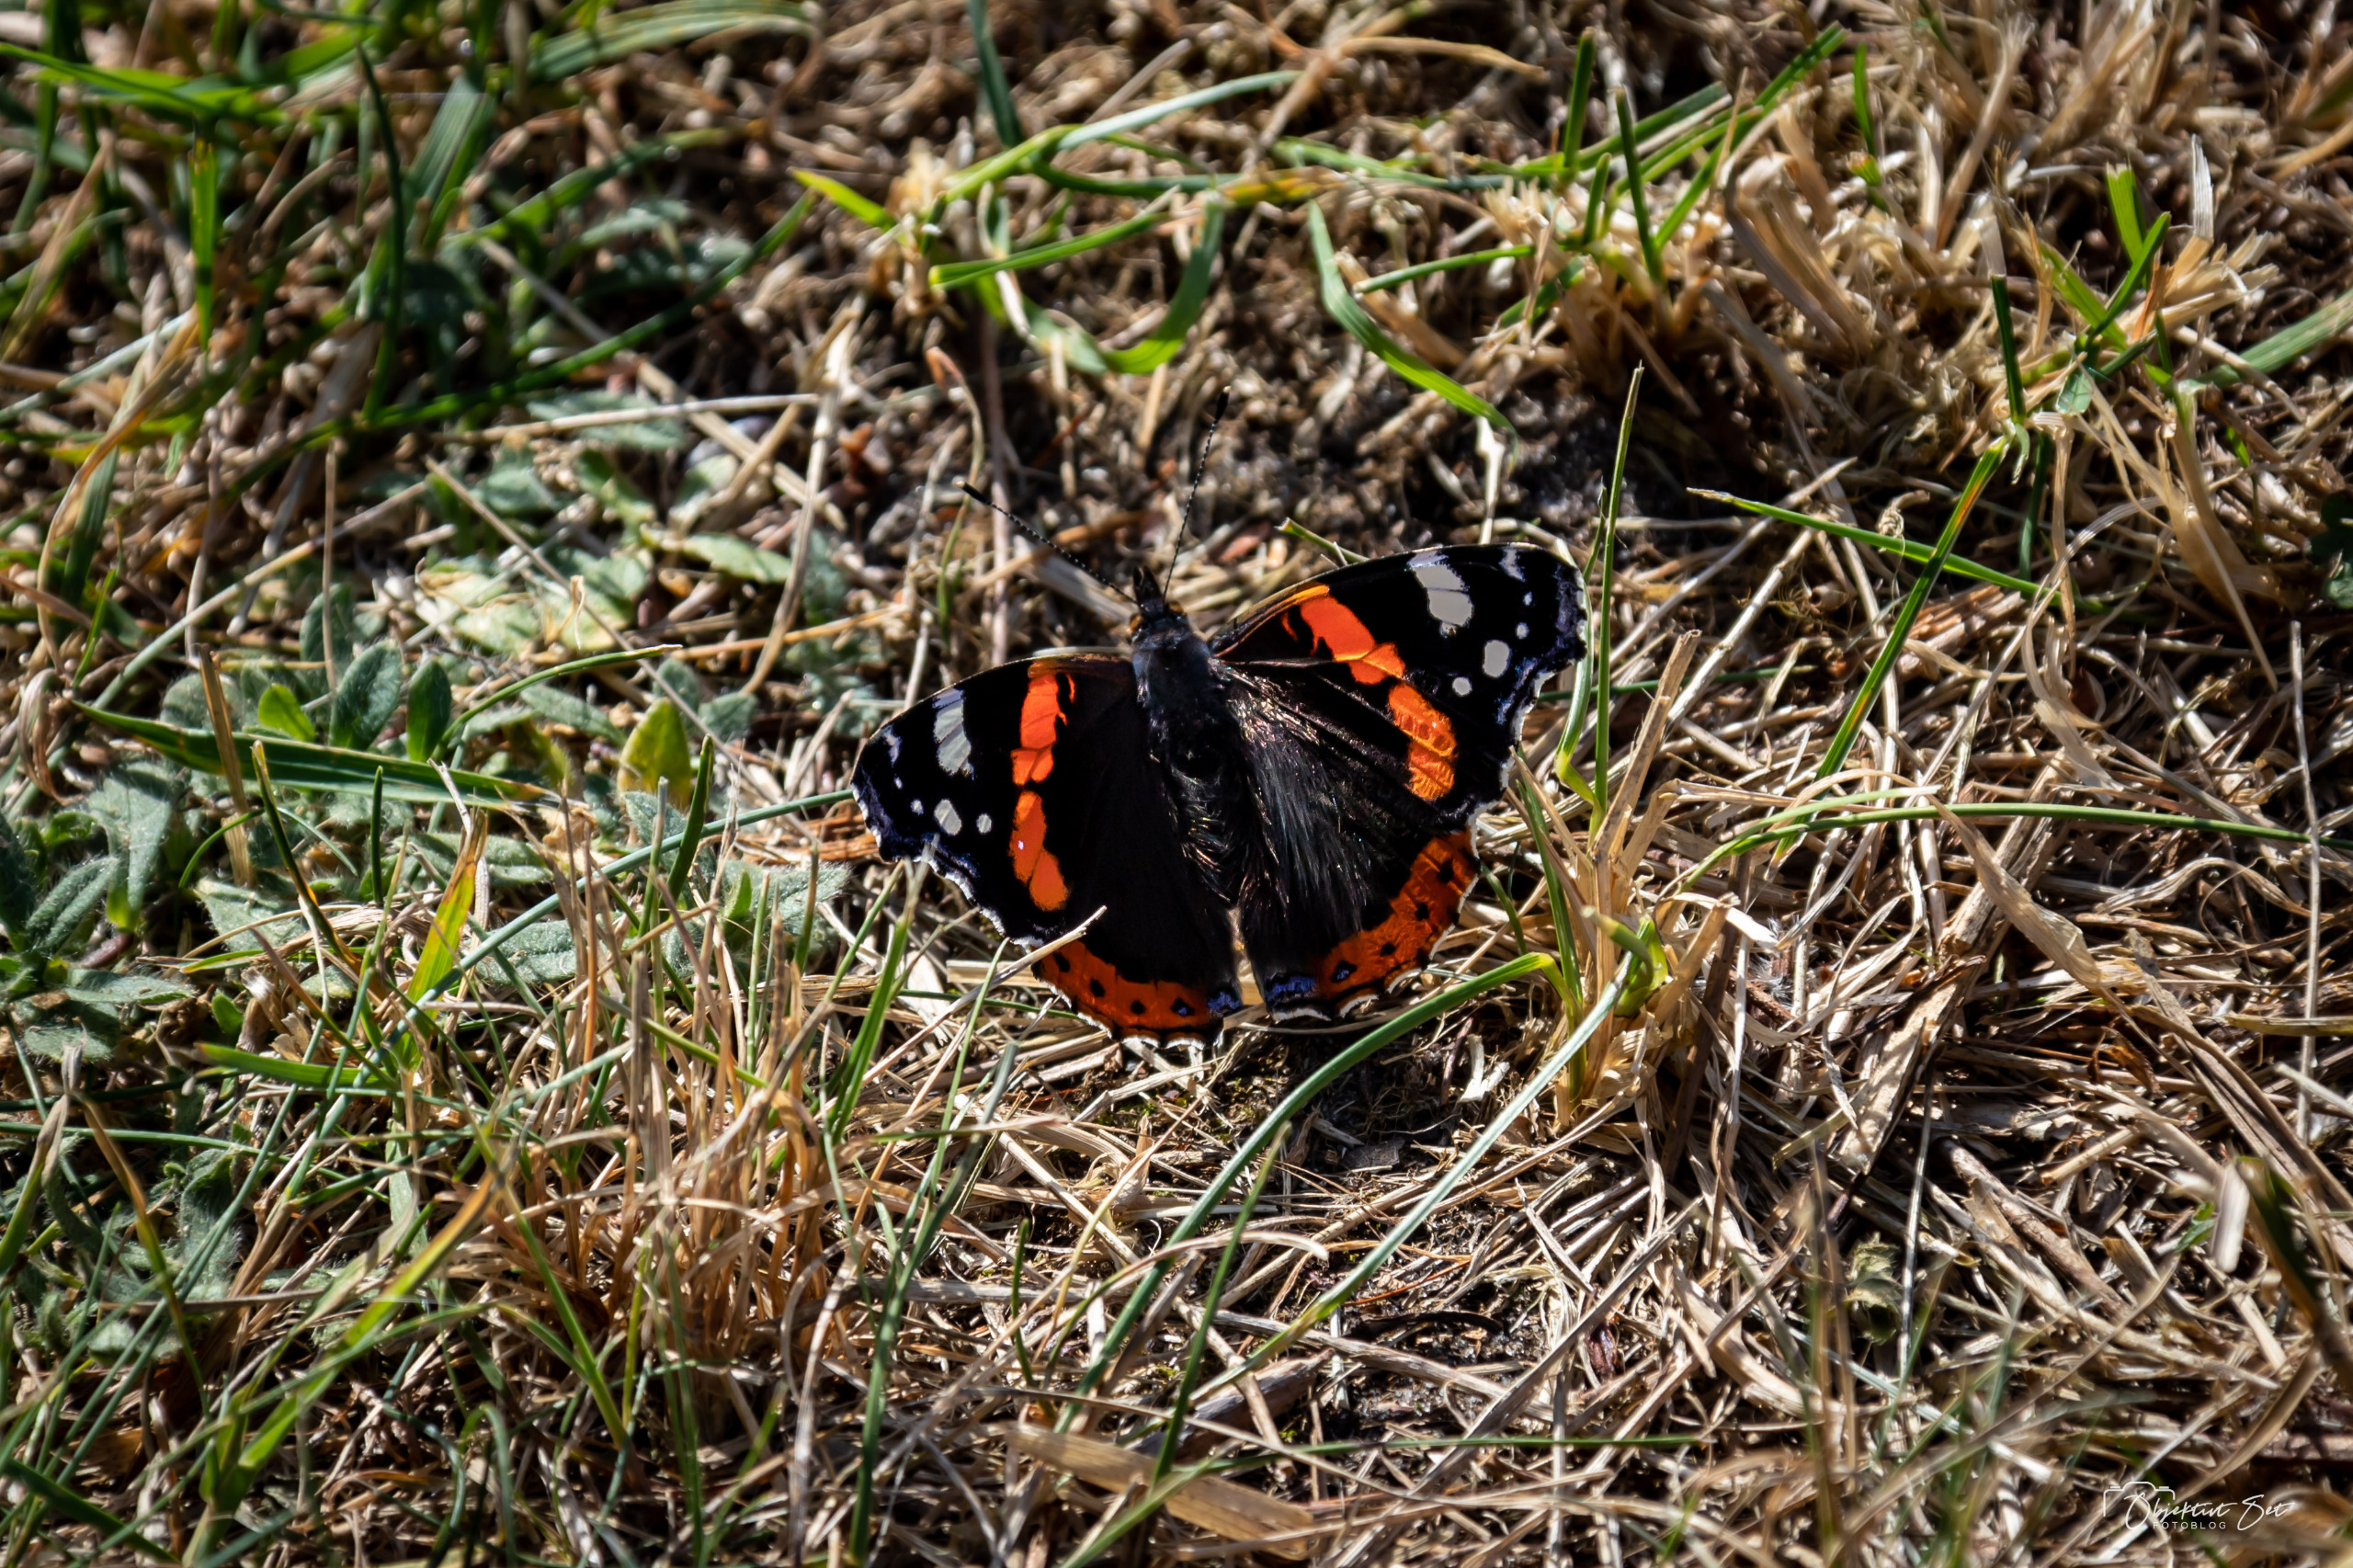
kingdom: Animalia
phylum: Arthropoda
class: Insecta
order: Lepidoptera
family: Nymphalidae
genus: Vanessa
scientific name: Vanessa atalanta
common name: Admiral
